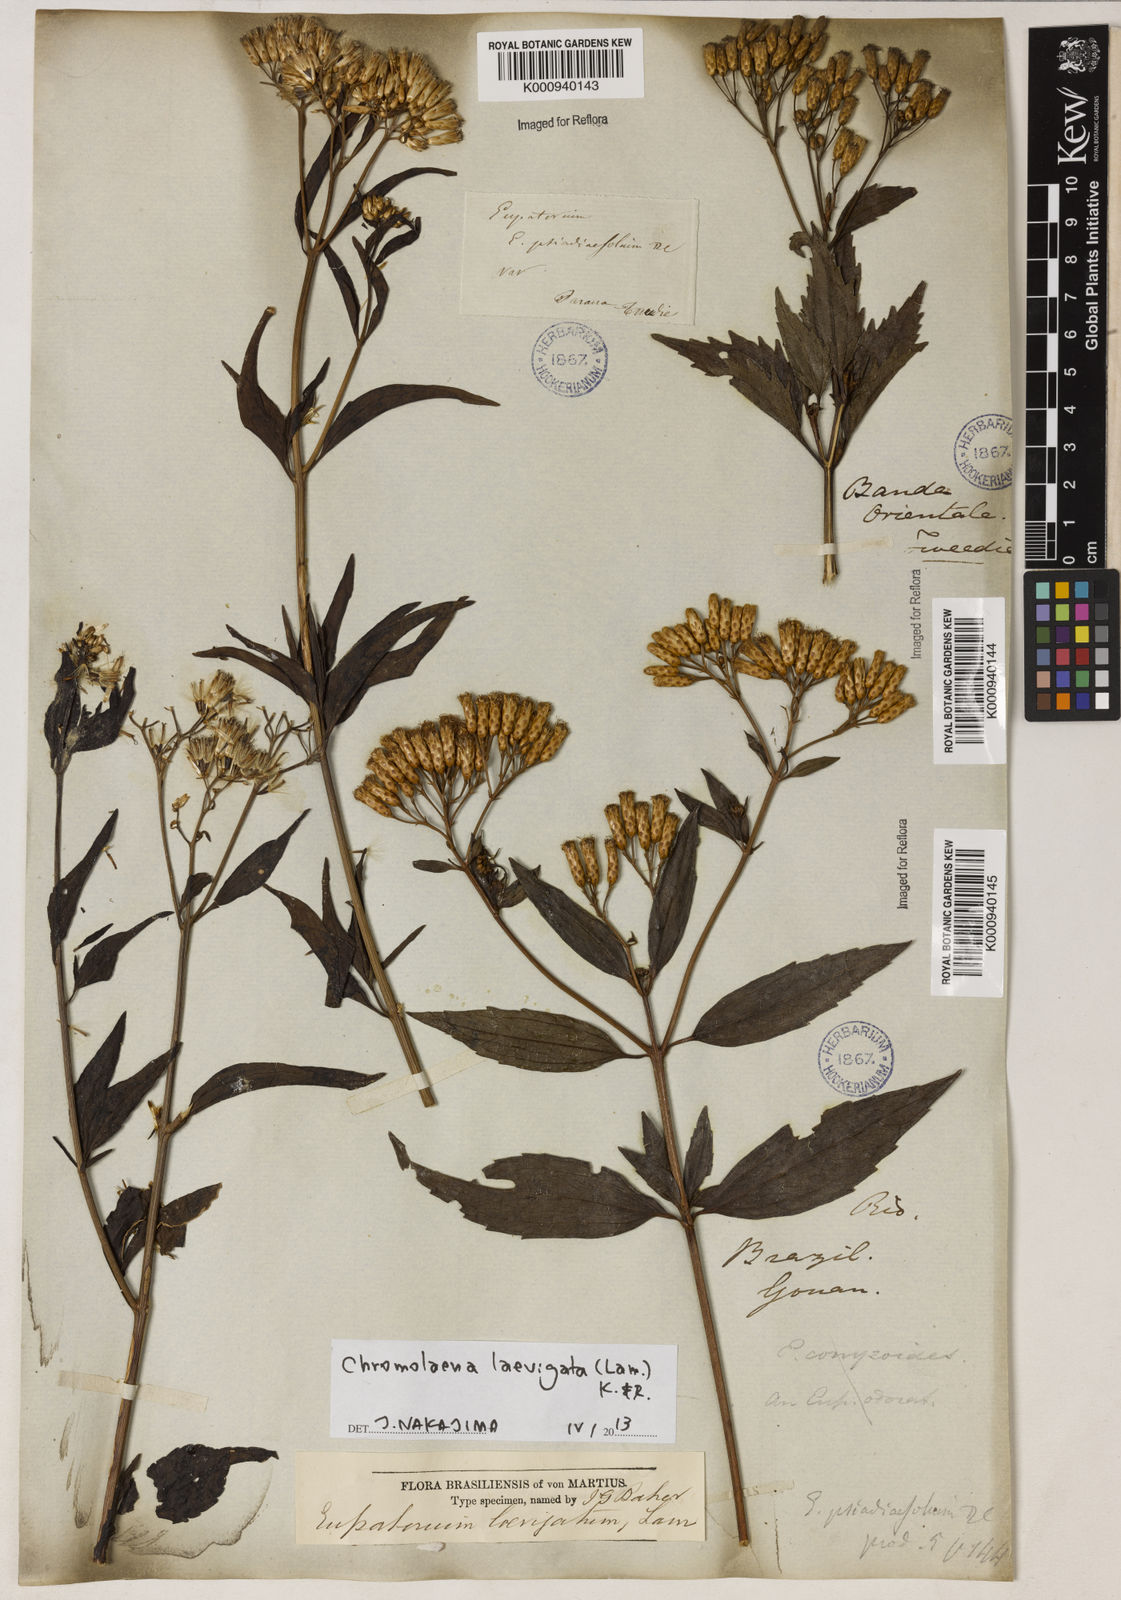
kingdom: Plantae
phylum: Tracheophyta
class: Magnoliopsida
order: Asterales
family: Asteraceae
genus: Chromolaena
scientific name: Chromolaena laevigata
